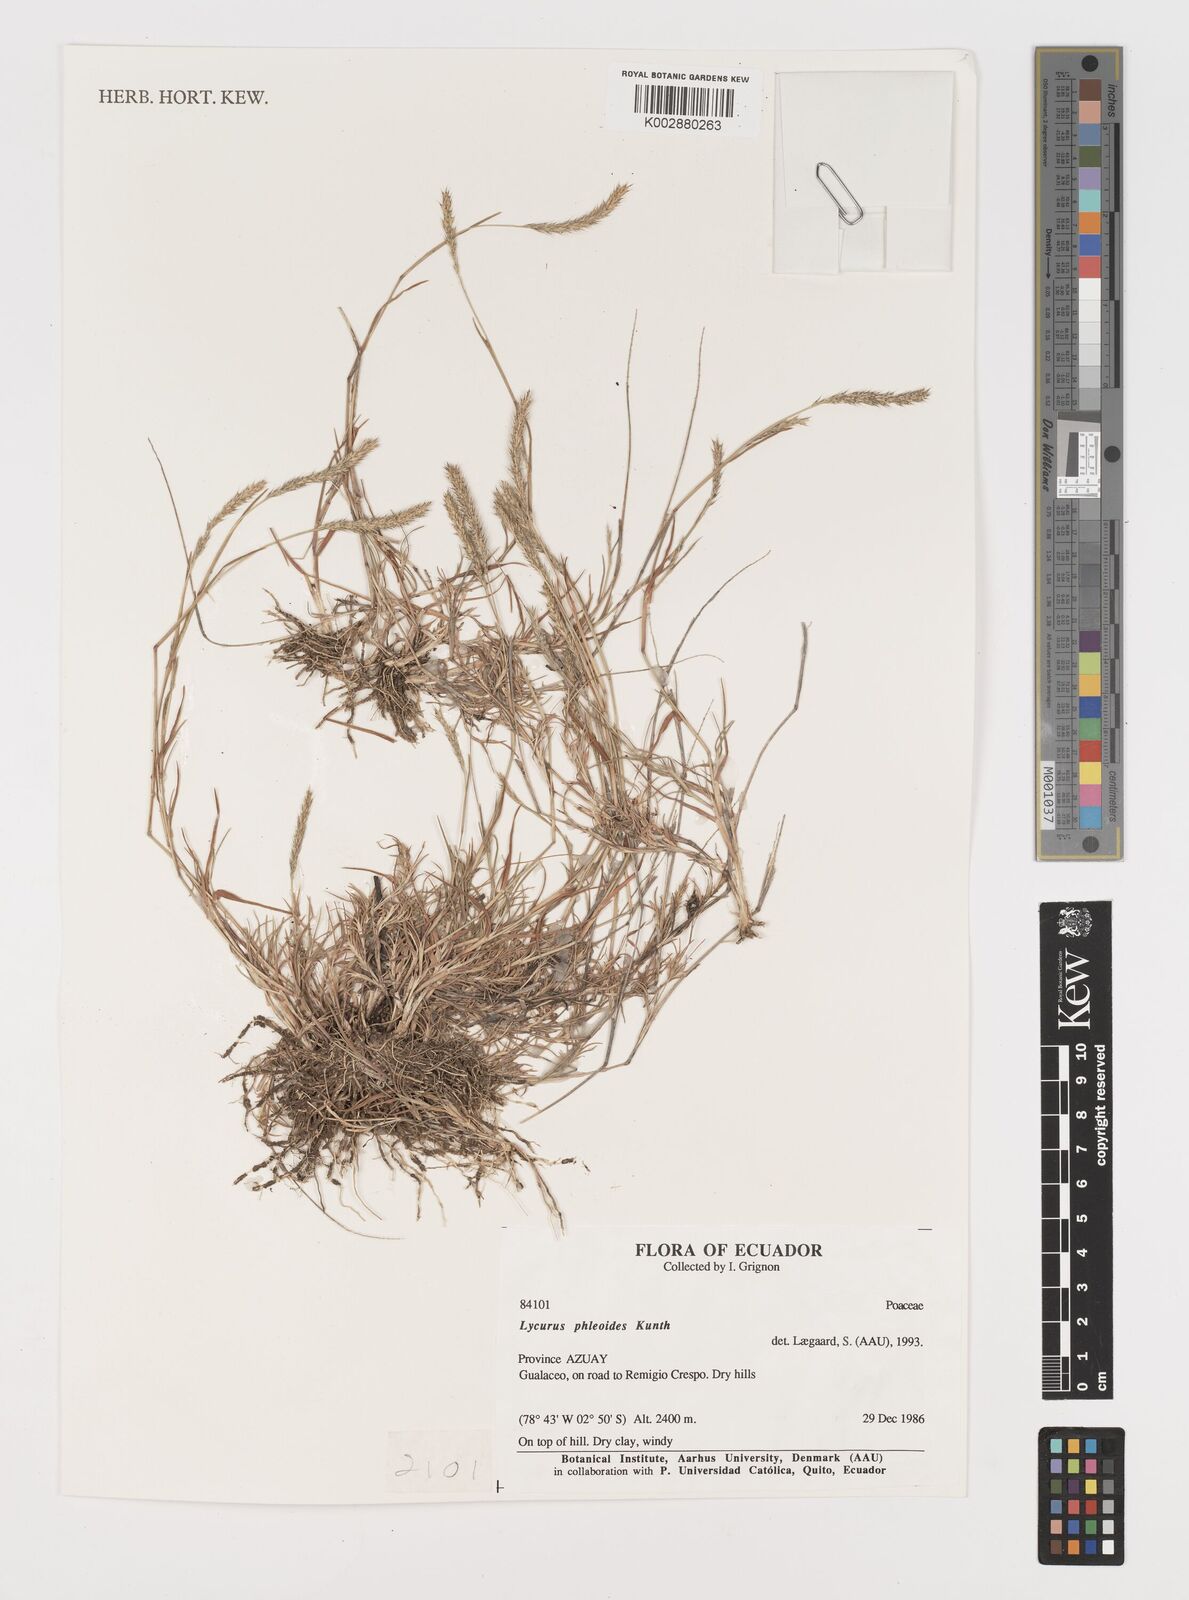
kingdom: Plantae
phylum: Tracheophyta
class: Liliopsida
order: Poales
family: Poaceae
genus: Muhlenbergia
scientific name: Muhlenbergia phalaroides
